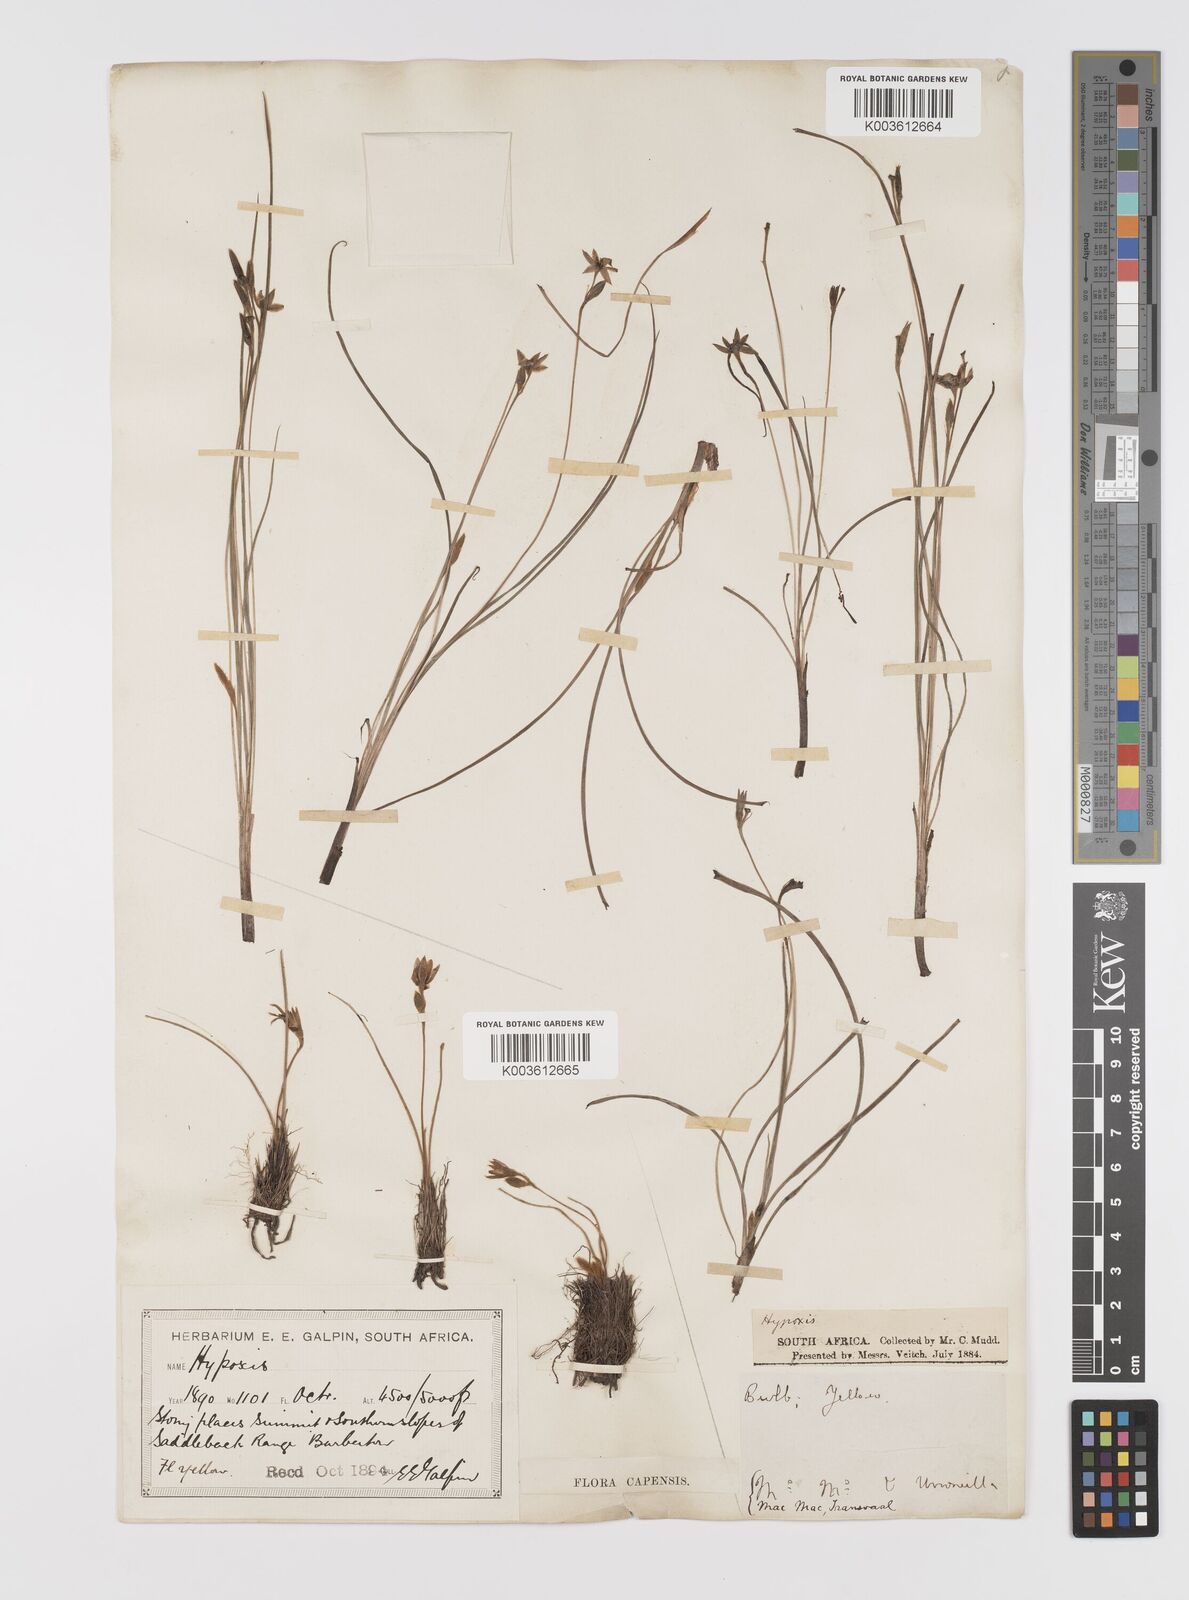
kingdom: Plantae
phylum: Tracheophyta
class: Liliopsida
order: Asparagales
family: Hypoxidaceae
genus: Hypoxis
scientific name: Hypoxis filiformis
